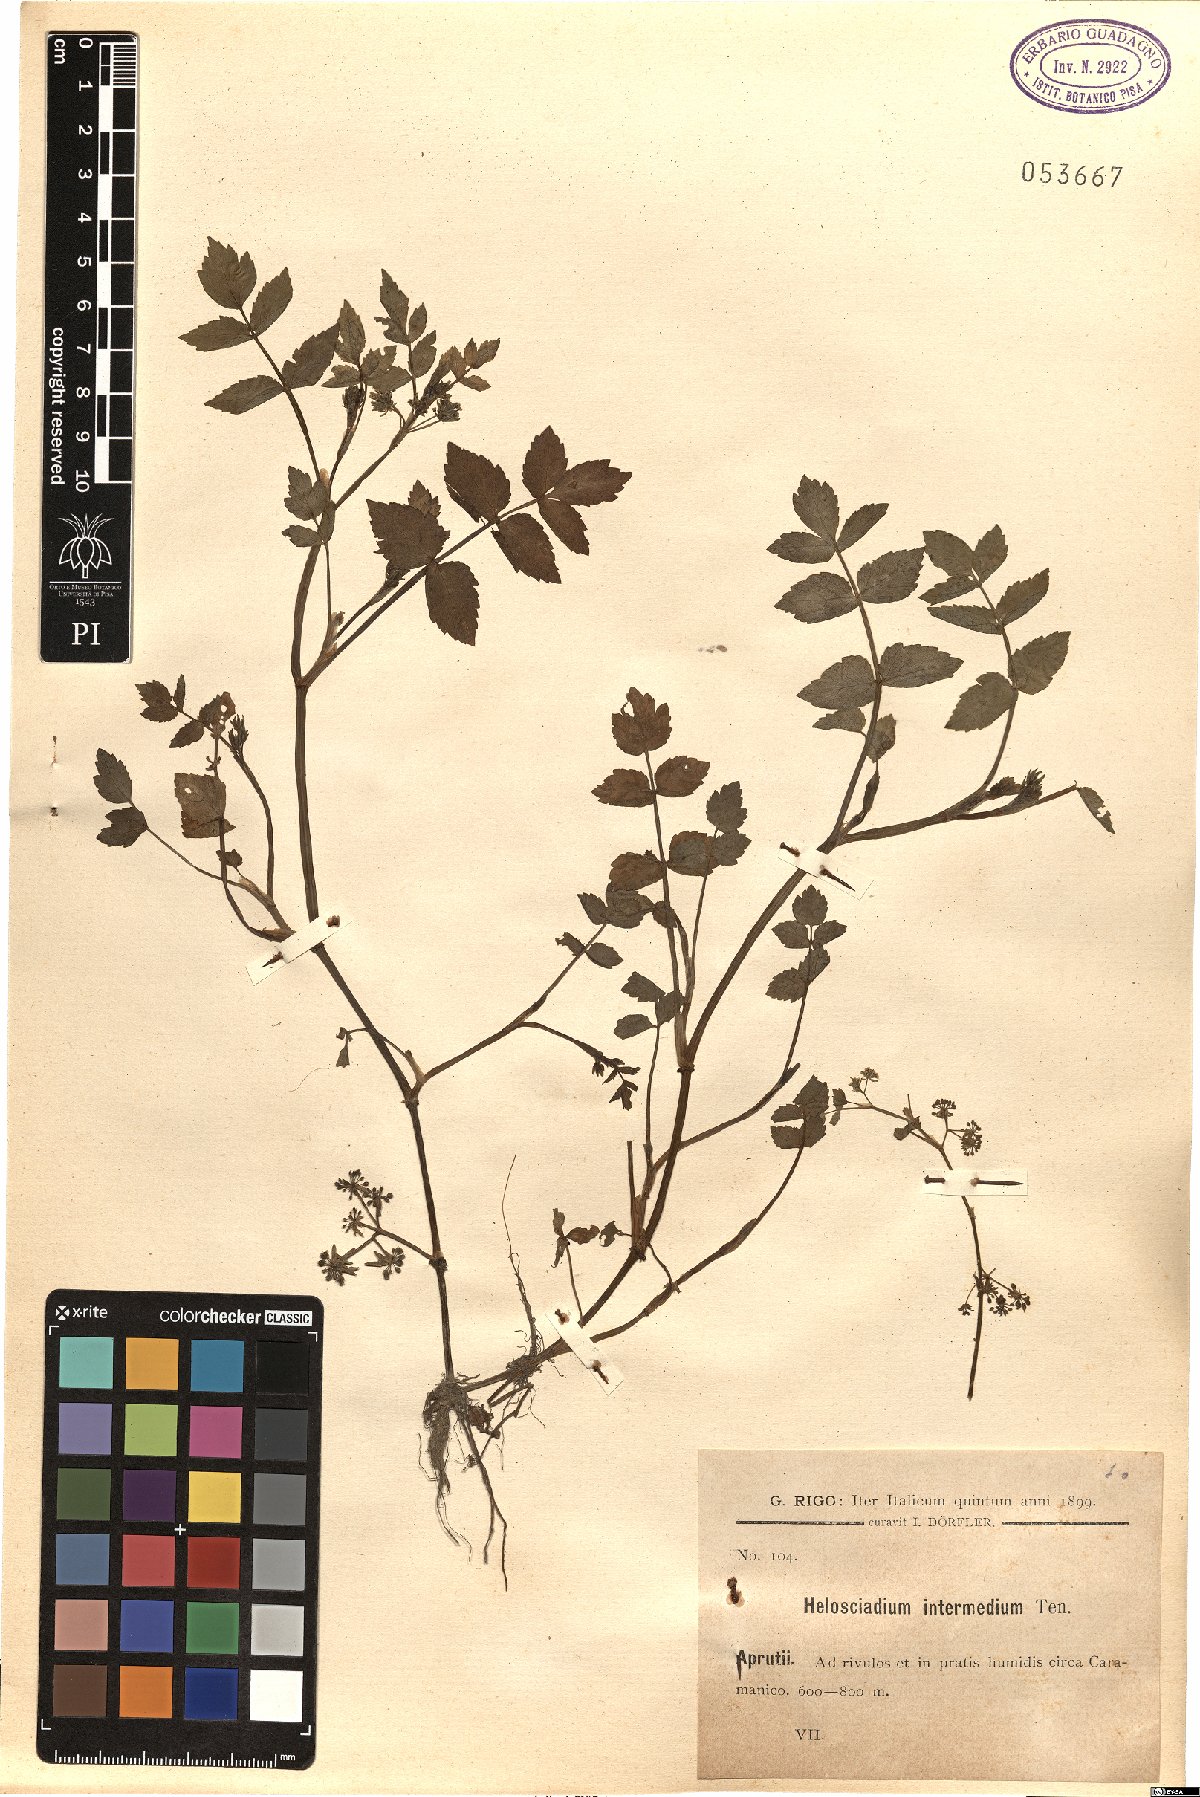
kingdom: Plantae
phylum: Tracheophyta
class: Magnoliopsida
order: Apiales
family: Apiaceae
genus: Helosciadium
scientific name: Helosciadium nodiflorum
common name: Fool's-watercress
